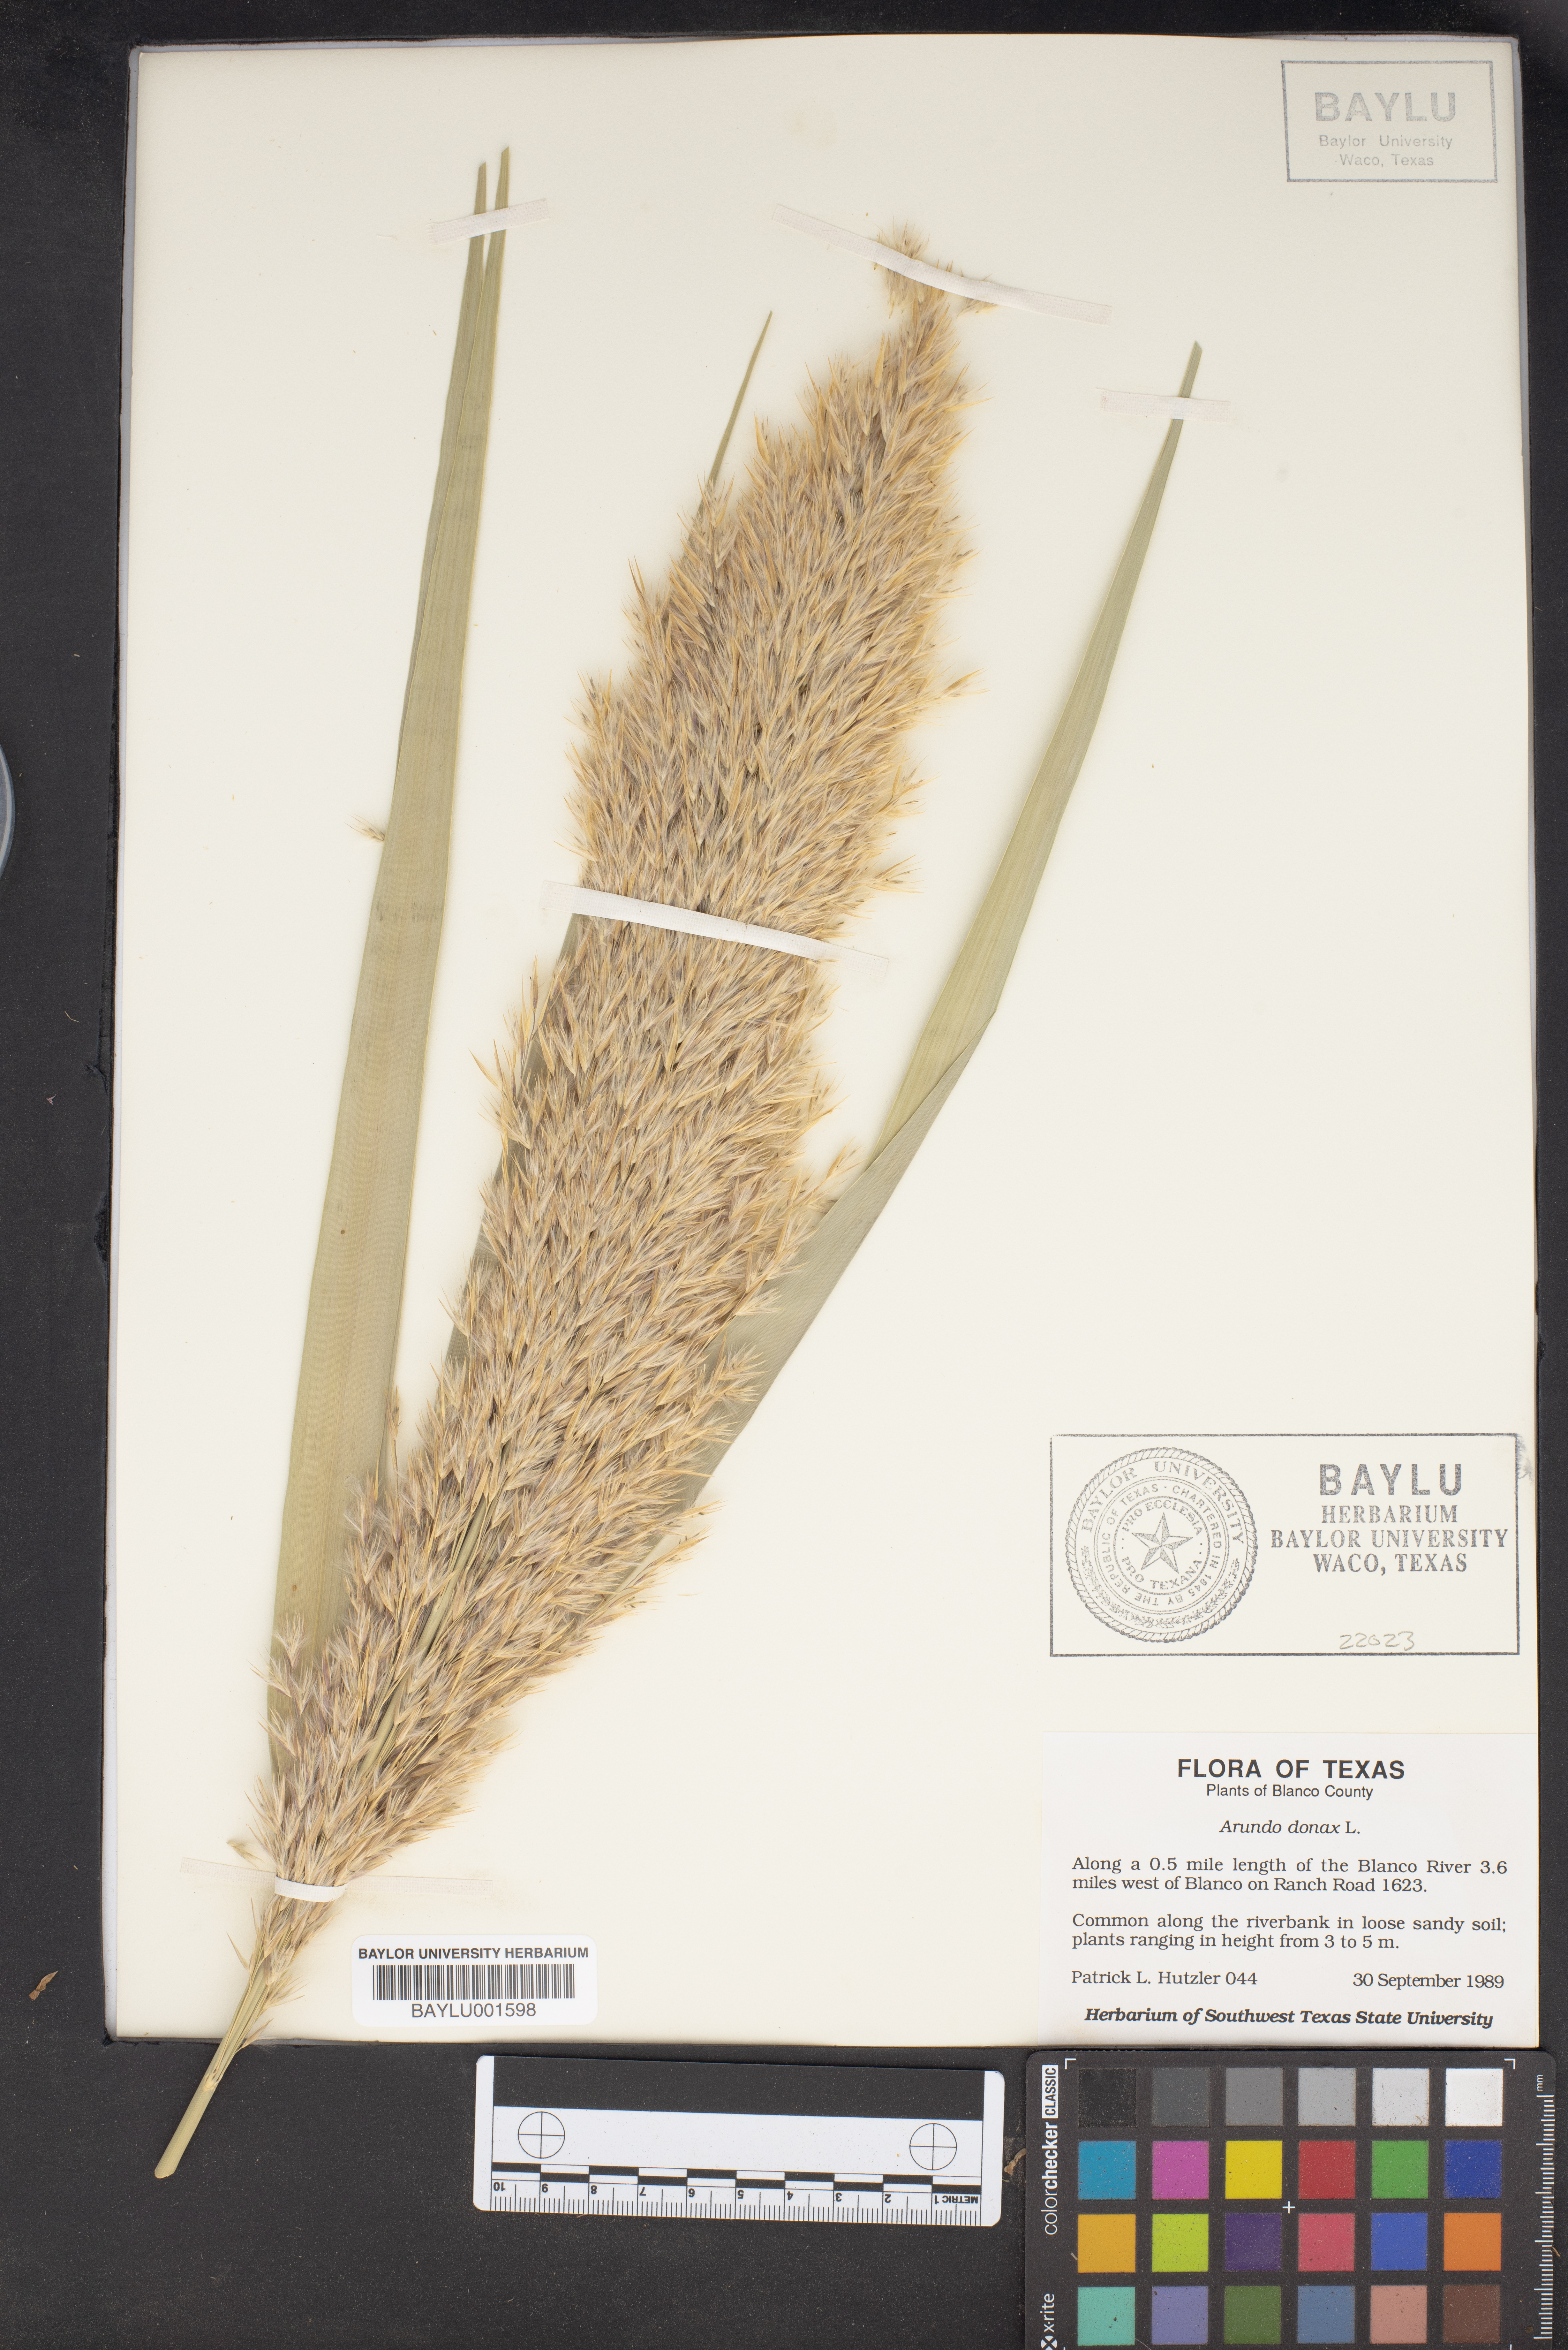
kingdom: Plantae
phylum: Tracheophyta
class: Liliopsida
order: Poales
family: Poaceae
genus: Arundo
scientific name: Arundo donax
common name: Giant reed
